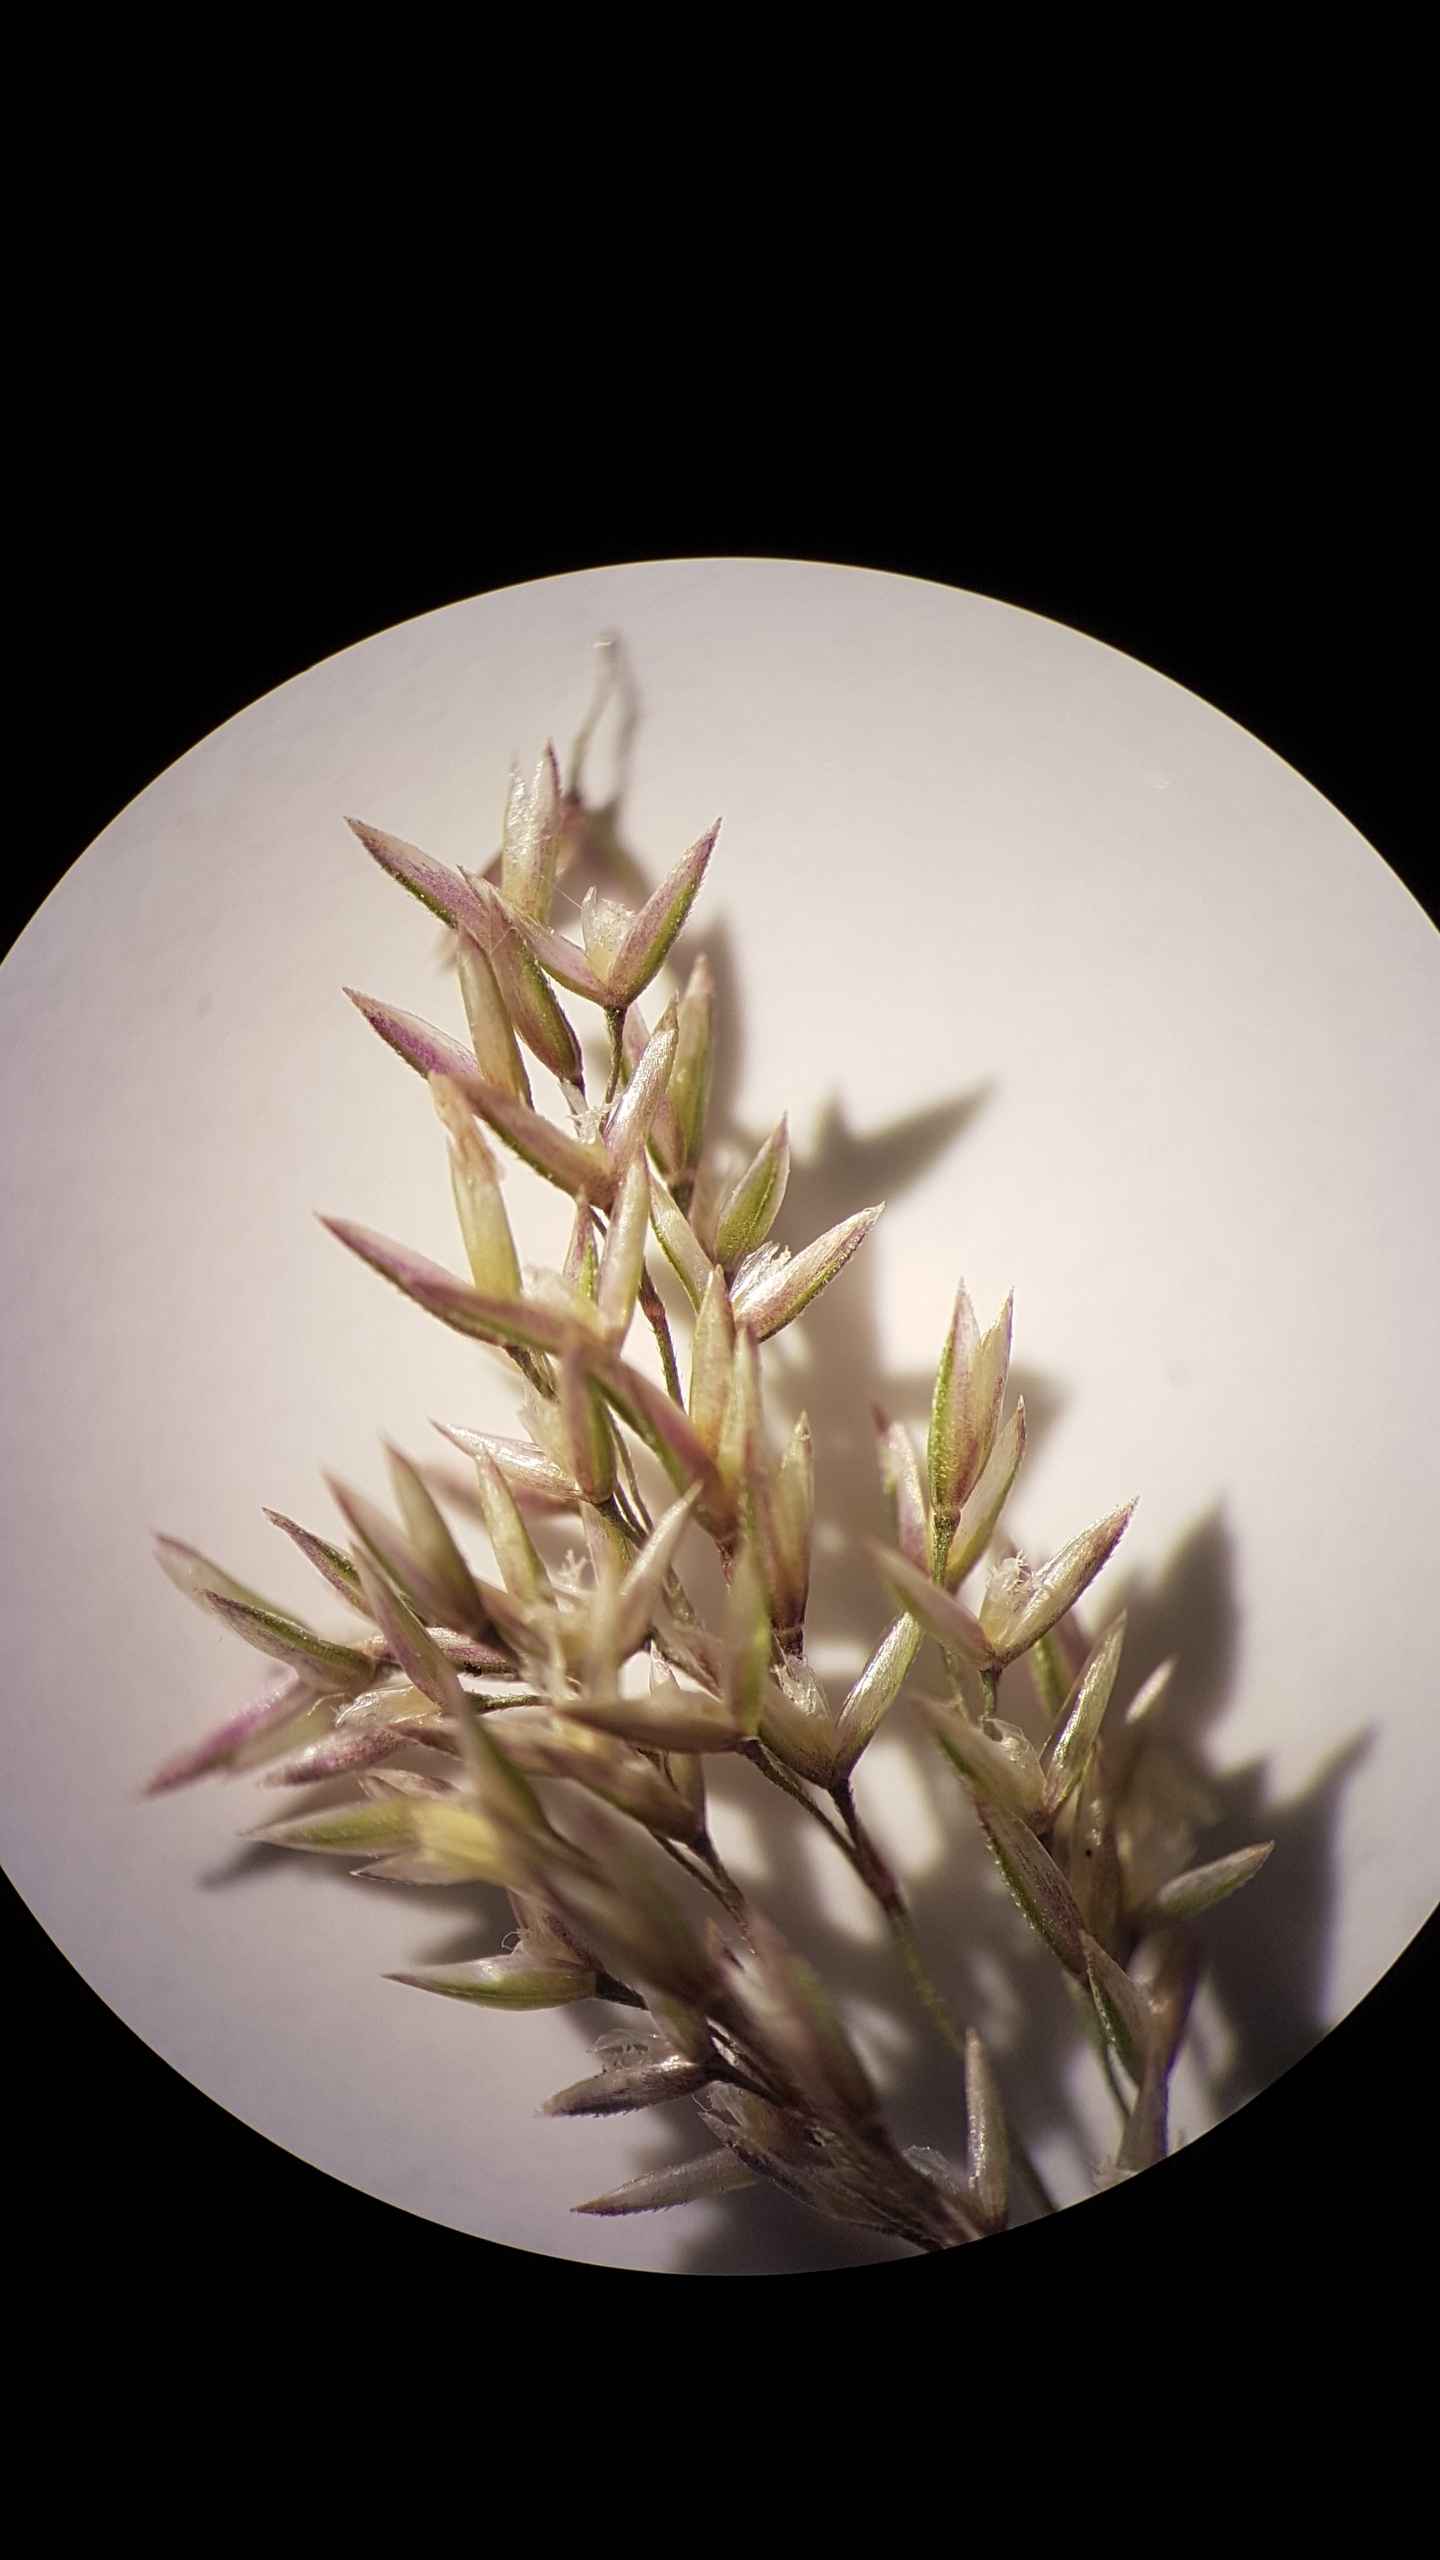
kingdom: Plantae
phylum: Tracheophyta
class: Liliopsida
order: Poales
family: Poaceae
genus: Agrostis
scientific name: Agrostis stolonifera
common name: Kryb-hvene
